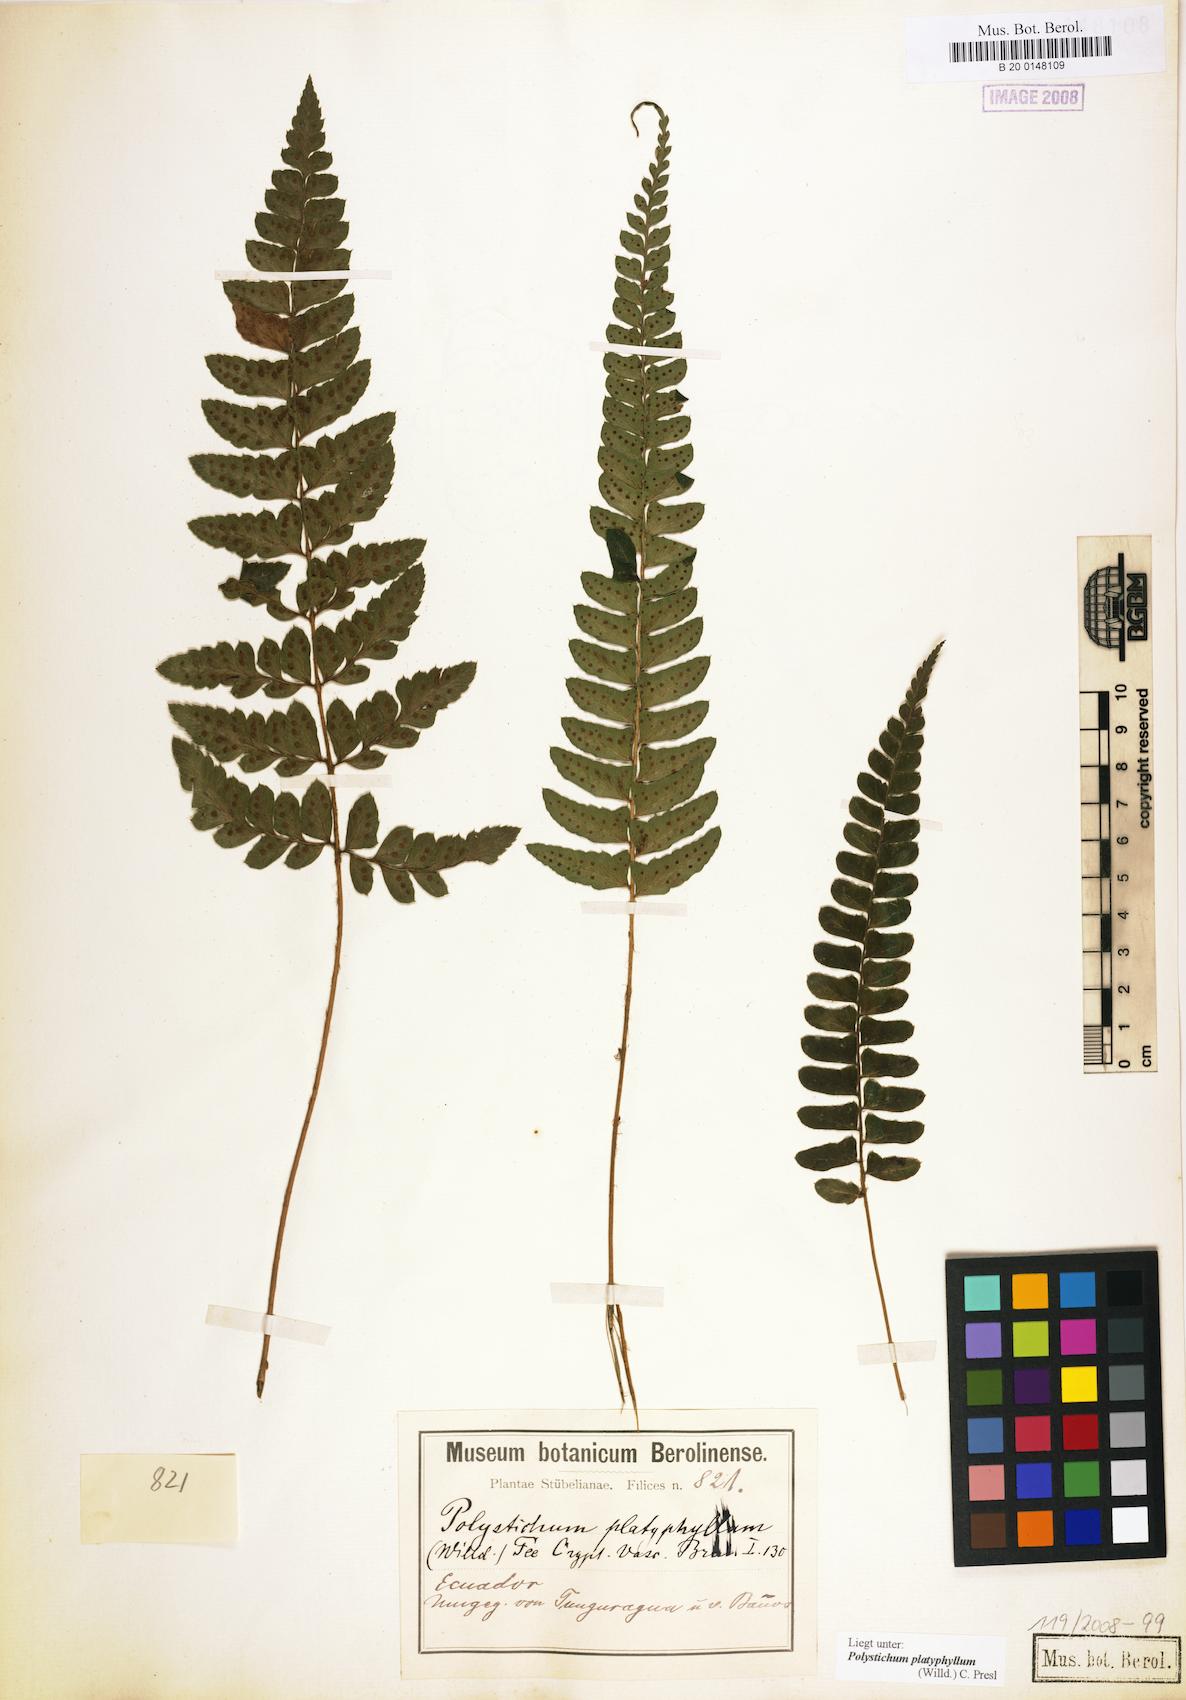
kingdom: Plantae
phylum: Tracheophyta
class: Polypodiopsida
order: Polypodiales
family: Dryopteridaceae
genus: Polystichum
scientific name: Polystichum platyphyllum
